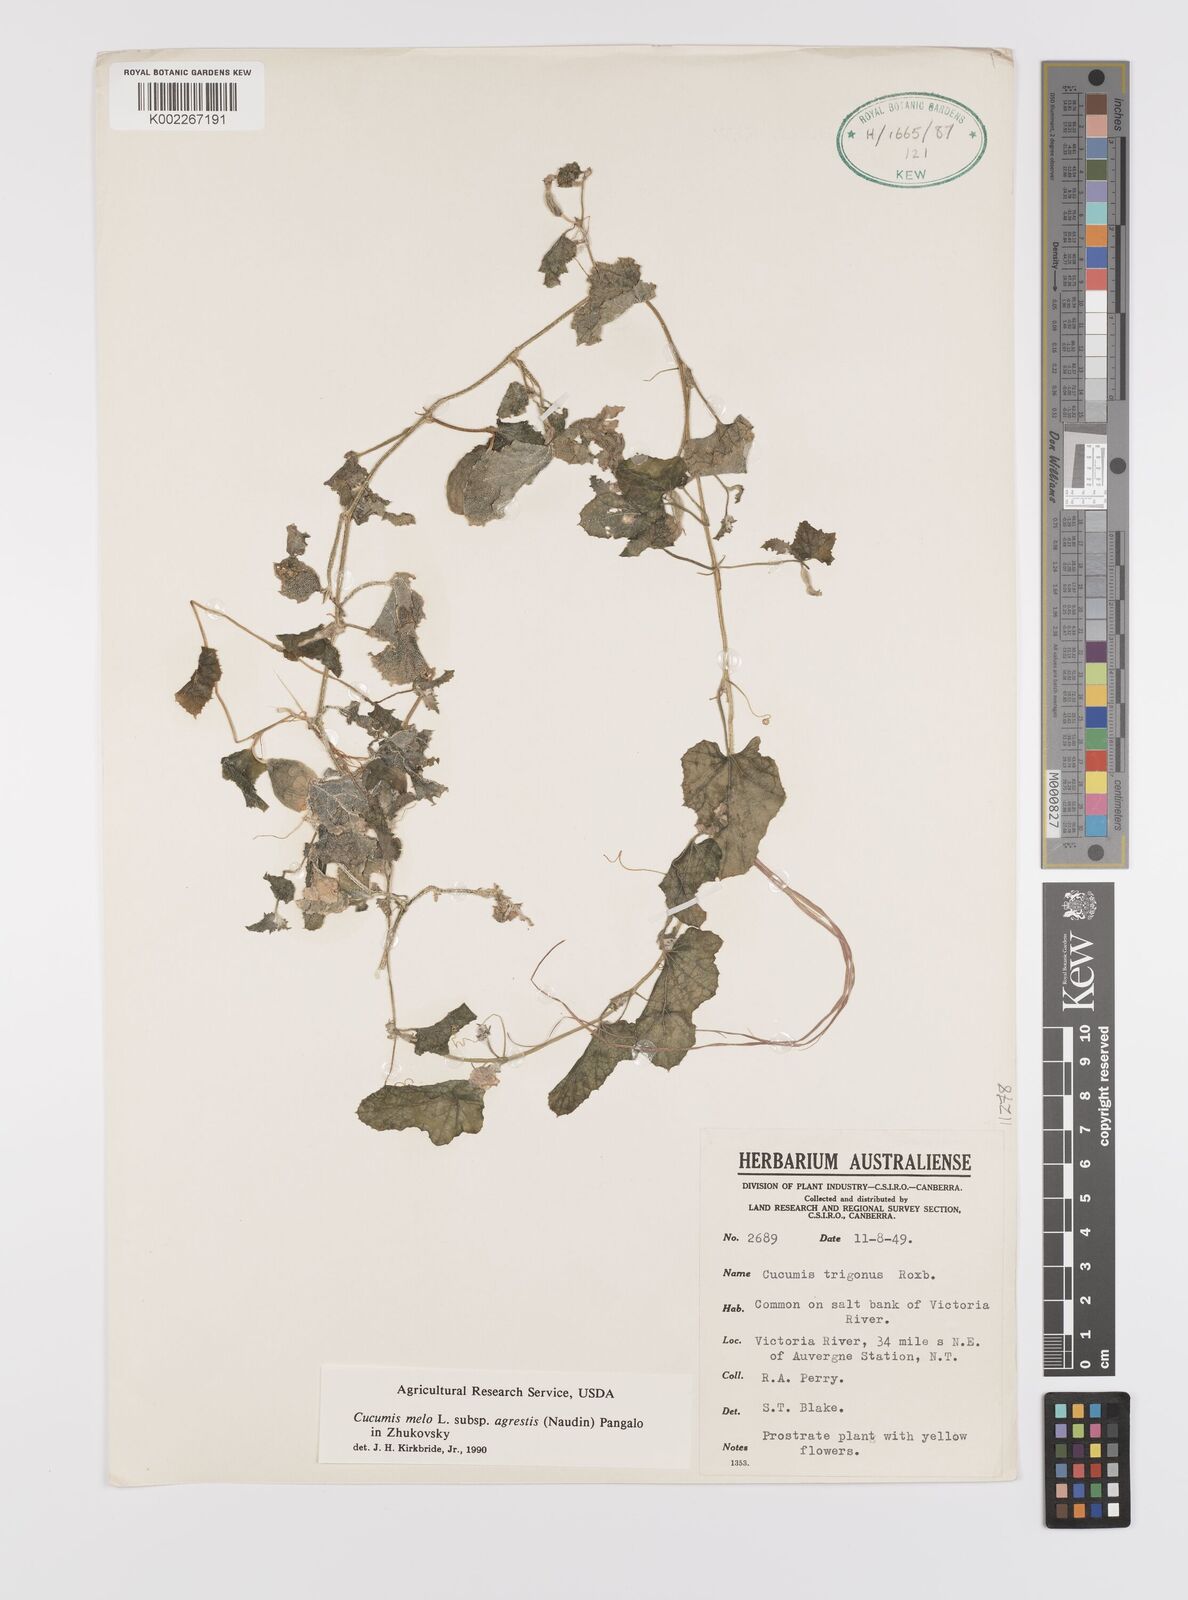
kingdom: Plantae
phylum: Tracheophyta
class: Magnoliopsida
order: Cucurbitales
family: Cucurbitaceae
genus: Cucumis
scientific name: Cucumis melo
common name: Melon
